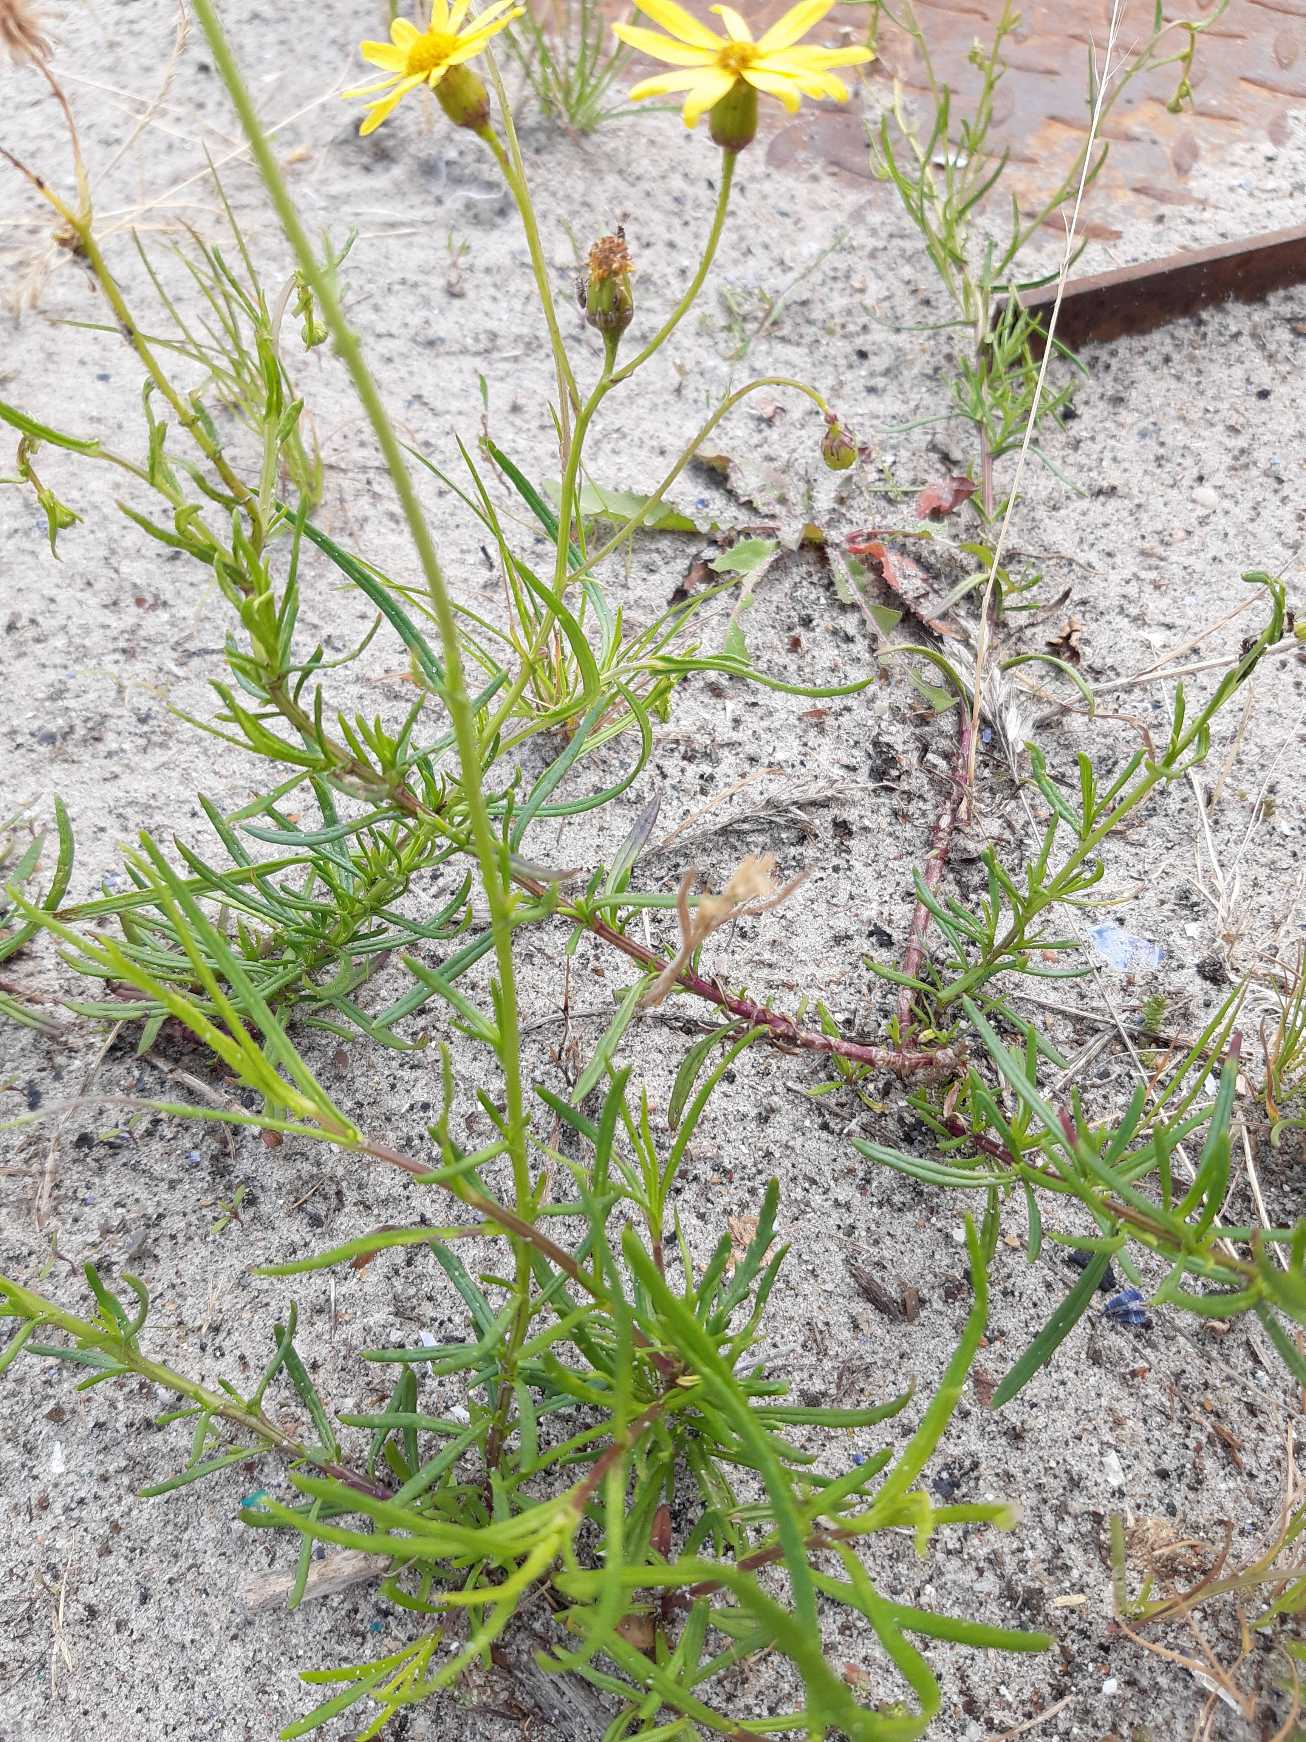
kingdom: Plantae
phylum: Tracheophyta
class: Magnoliopsida
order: Asterales
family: Asteraceae
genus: Senecio
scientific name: Senecio inaequidens
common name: Smalbladet brandbæger
